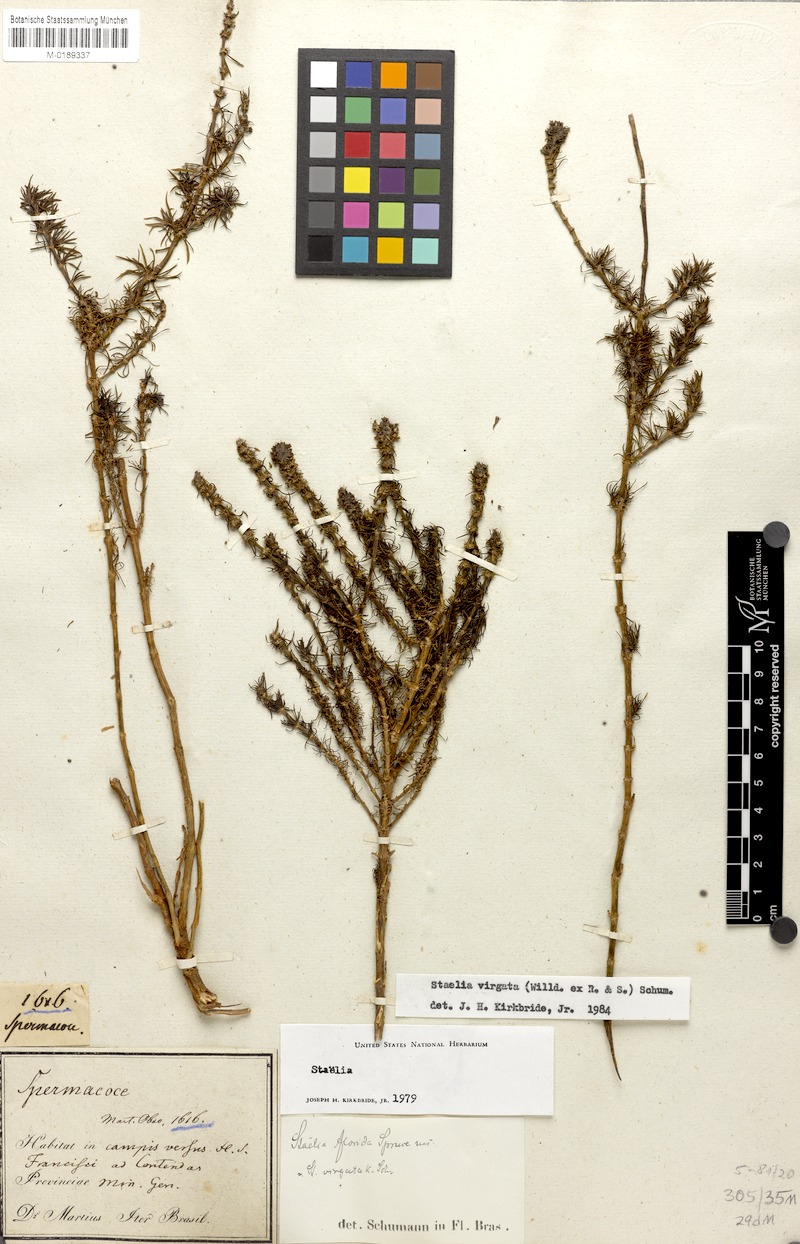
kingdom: Plantae
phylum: Tracheophyta
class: Magnoliopsida
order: Gentianales
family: Rubiaceae
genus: Staelia
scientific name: Staelia virgata
